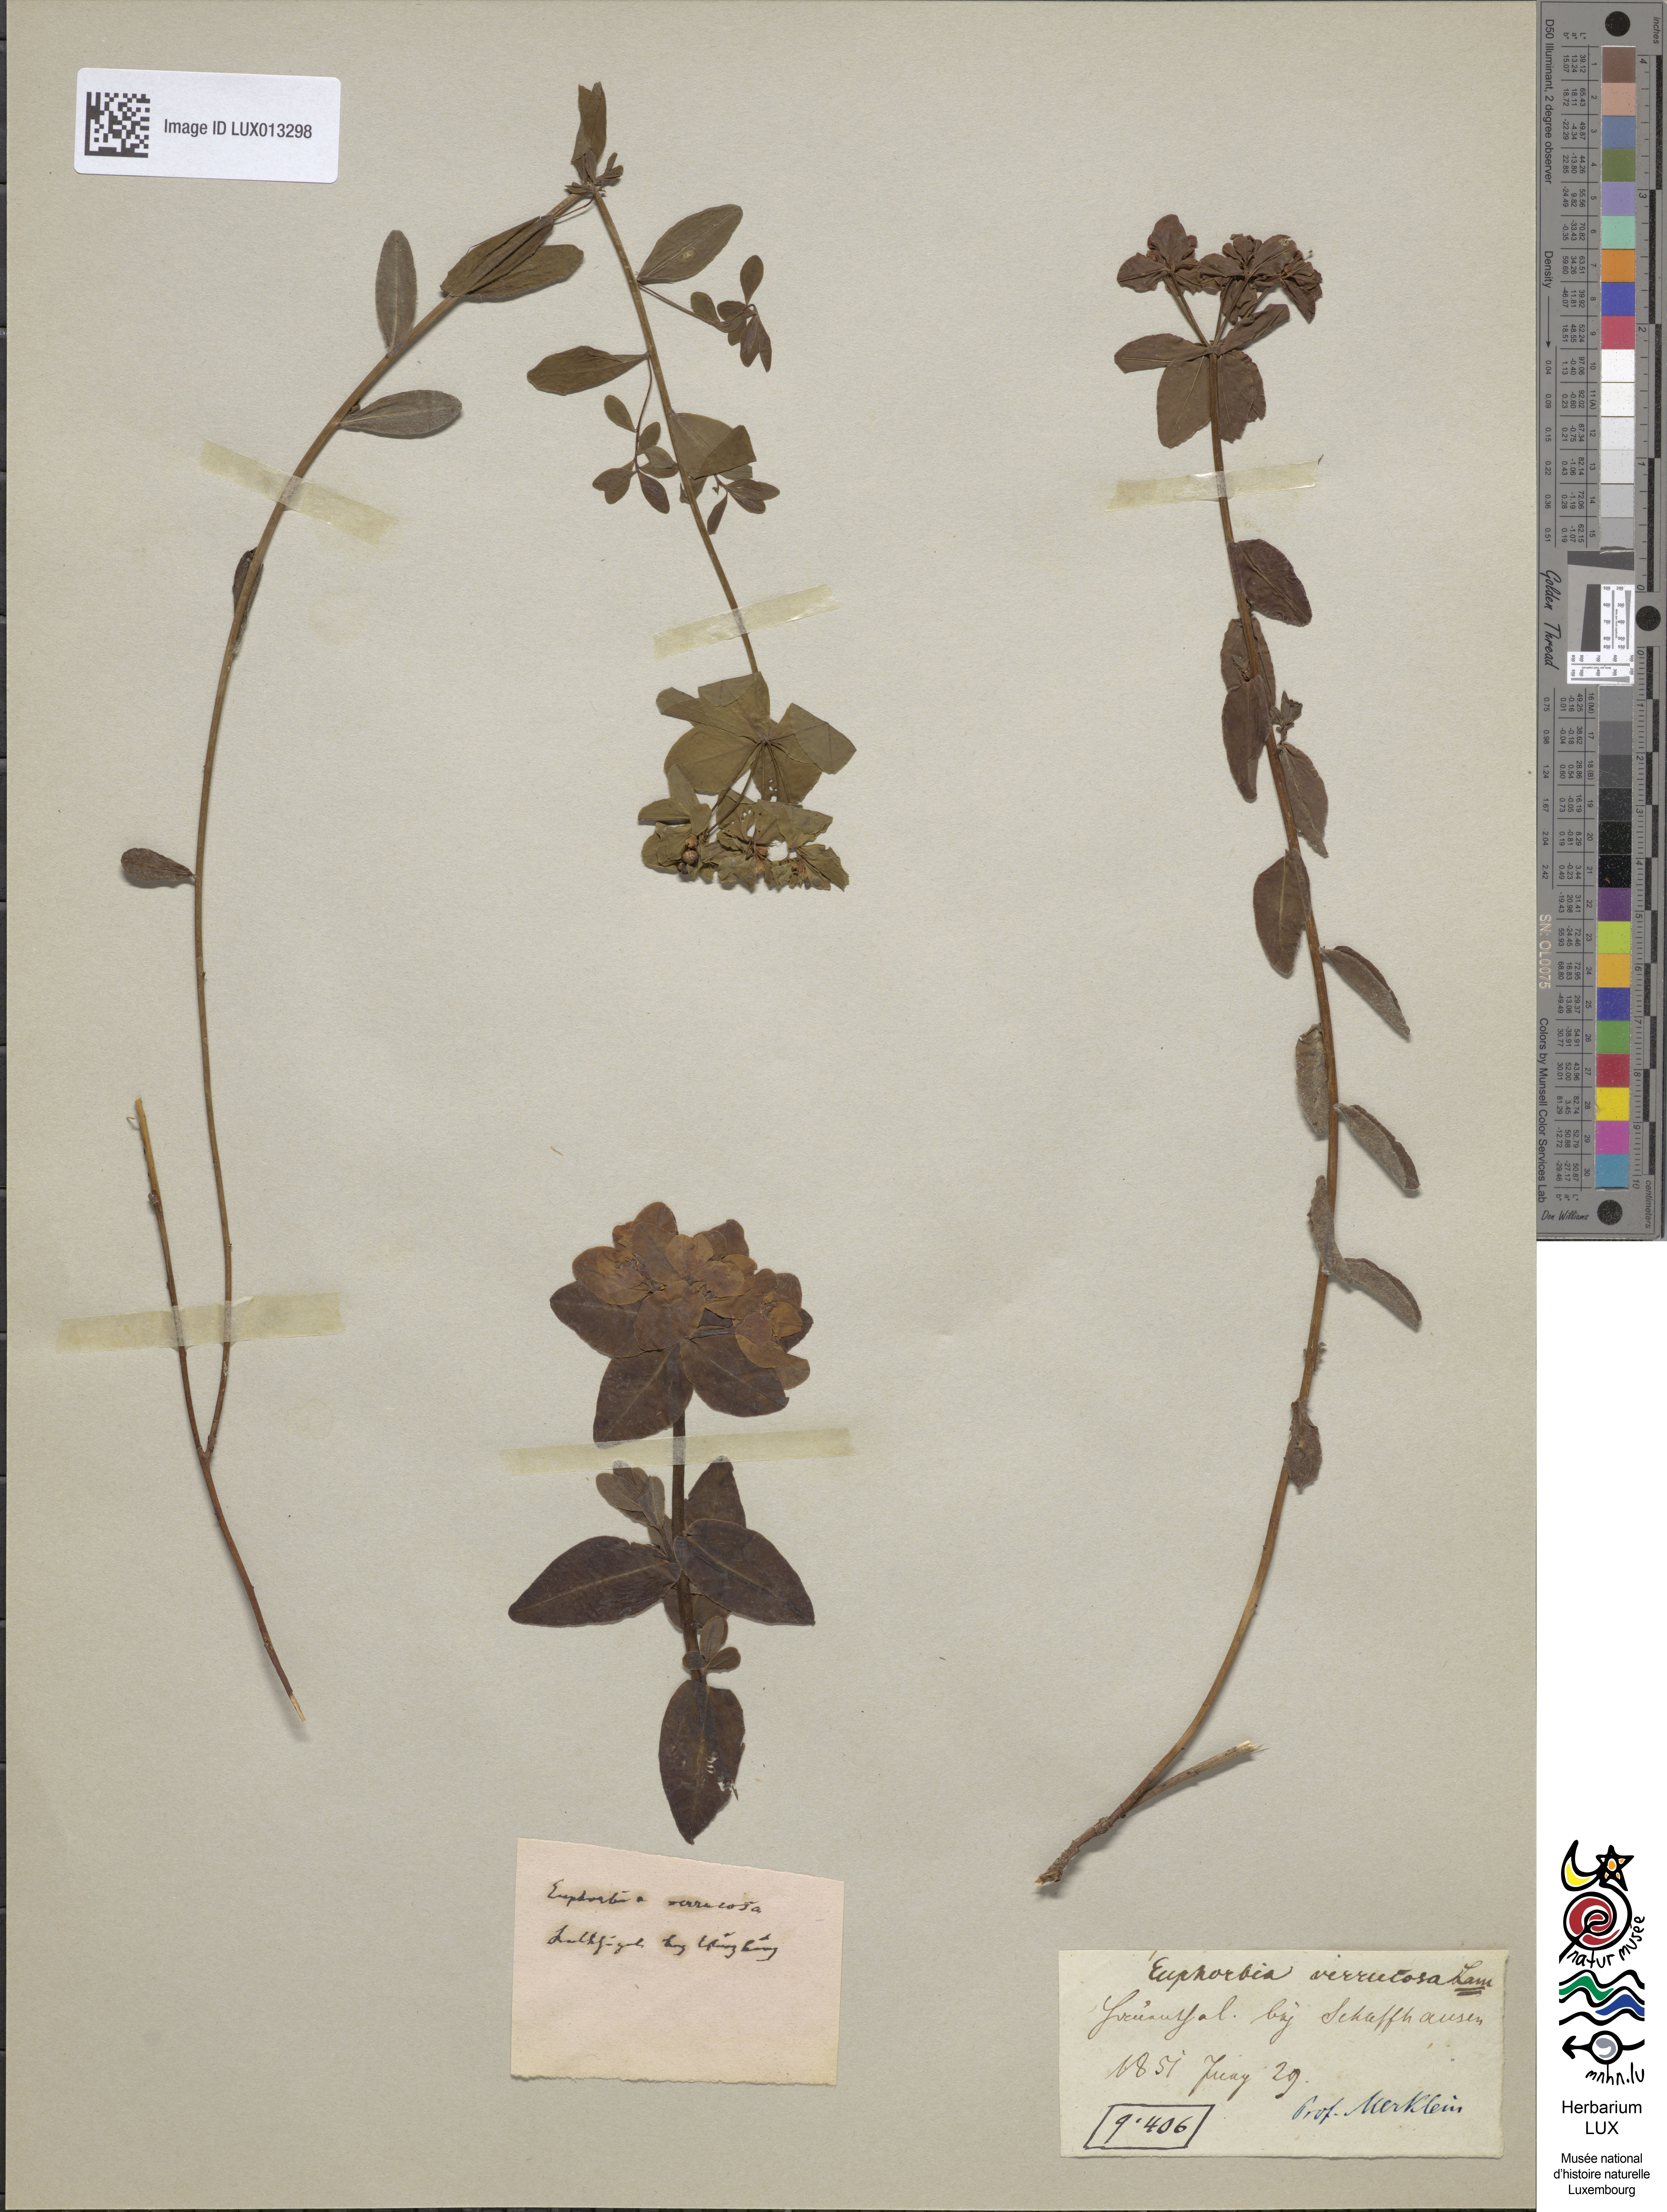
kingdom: Plantae
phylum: Tracheophyta
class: Magnoliopsida
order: Malpighiales
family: Euphorbiaceae
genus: Euphorbia
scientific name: Euphorbia verrucosa
